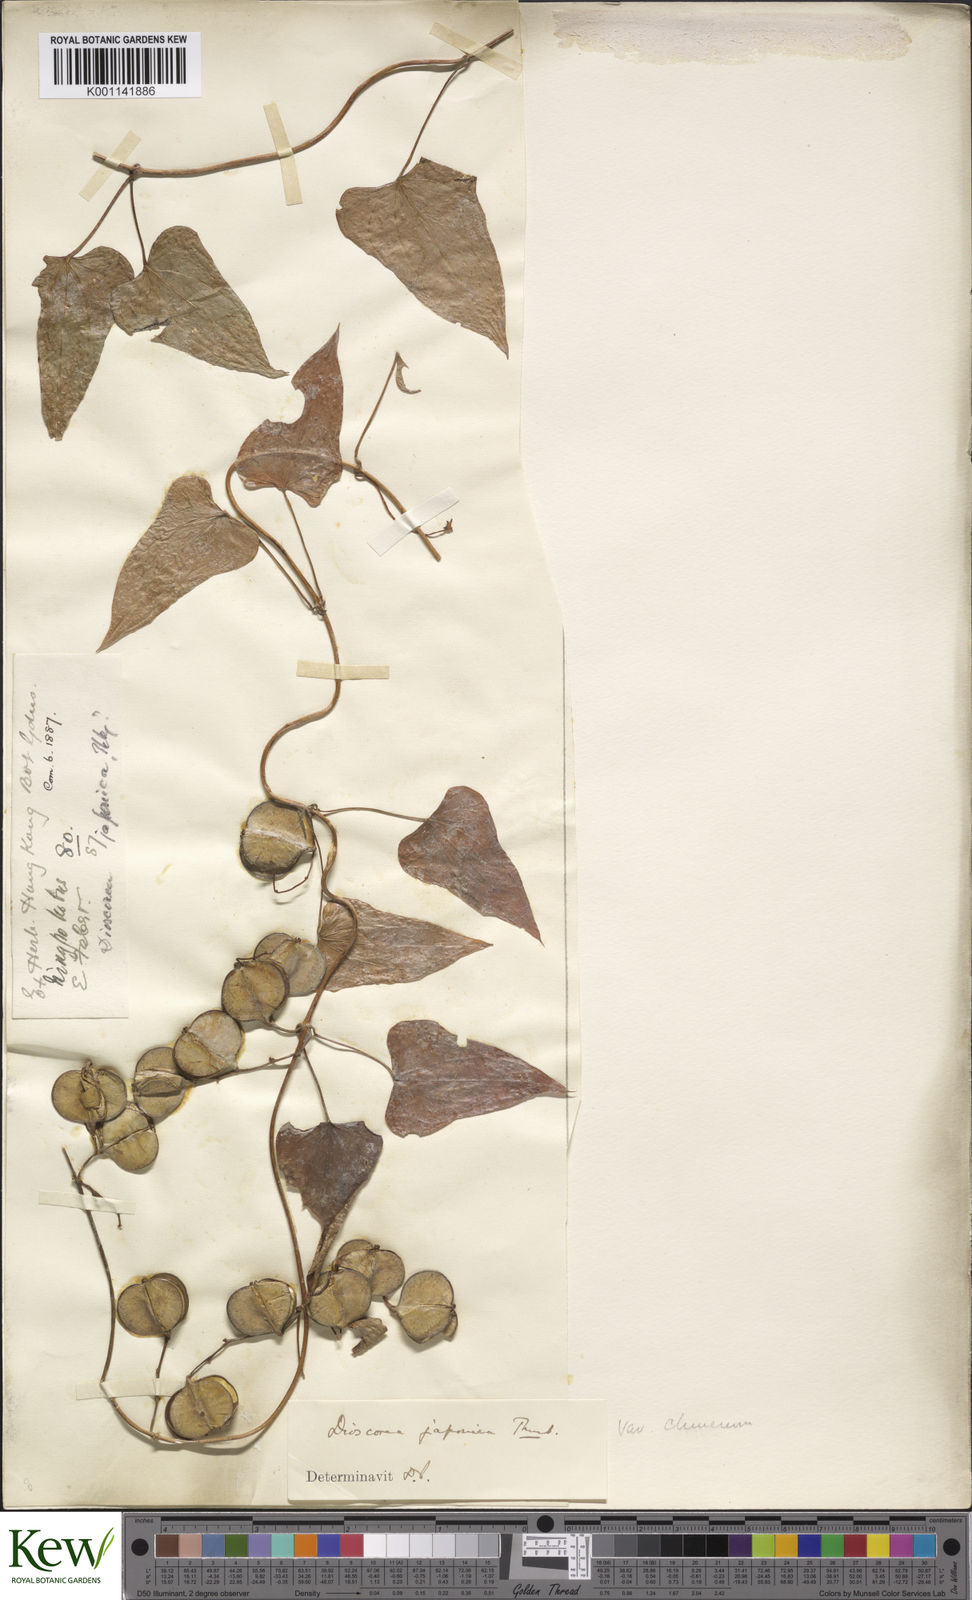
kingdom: Plantae
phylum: Tracheophyta
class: Liliopsida
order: Dioscoreales
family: Dioscoreaceae
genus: Dioscorea
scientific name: Dioscorea japonica
